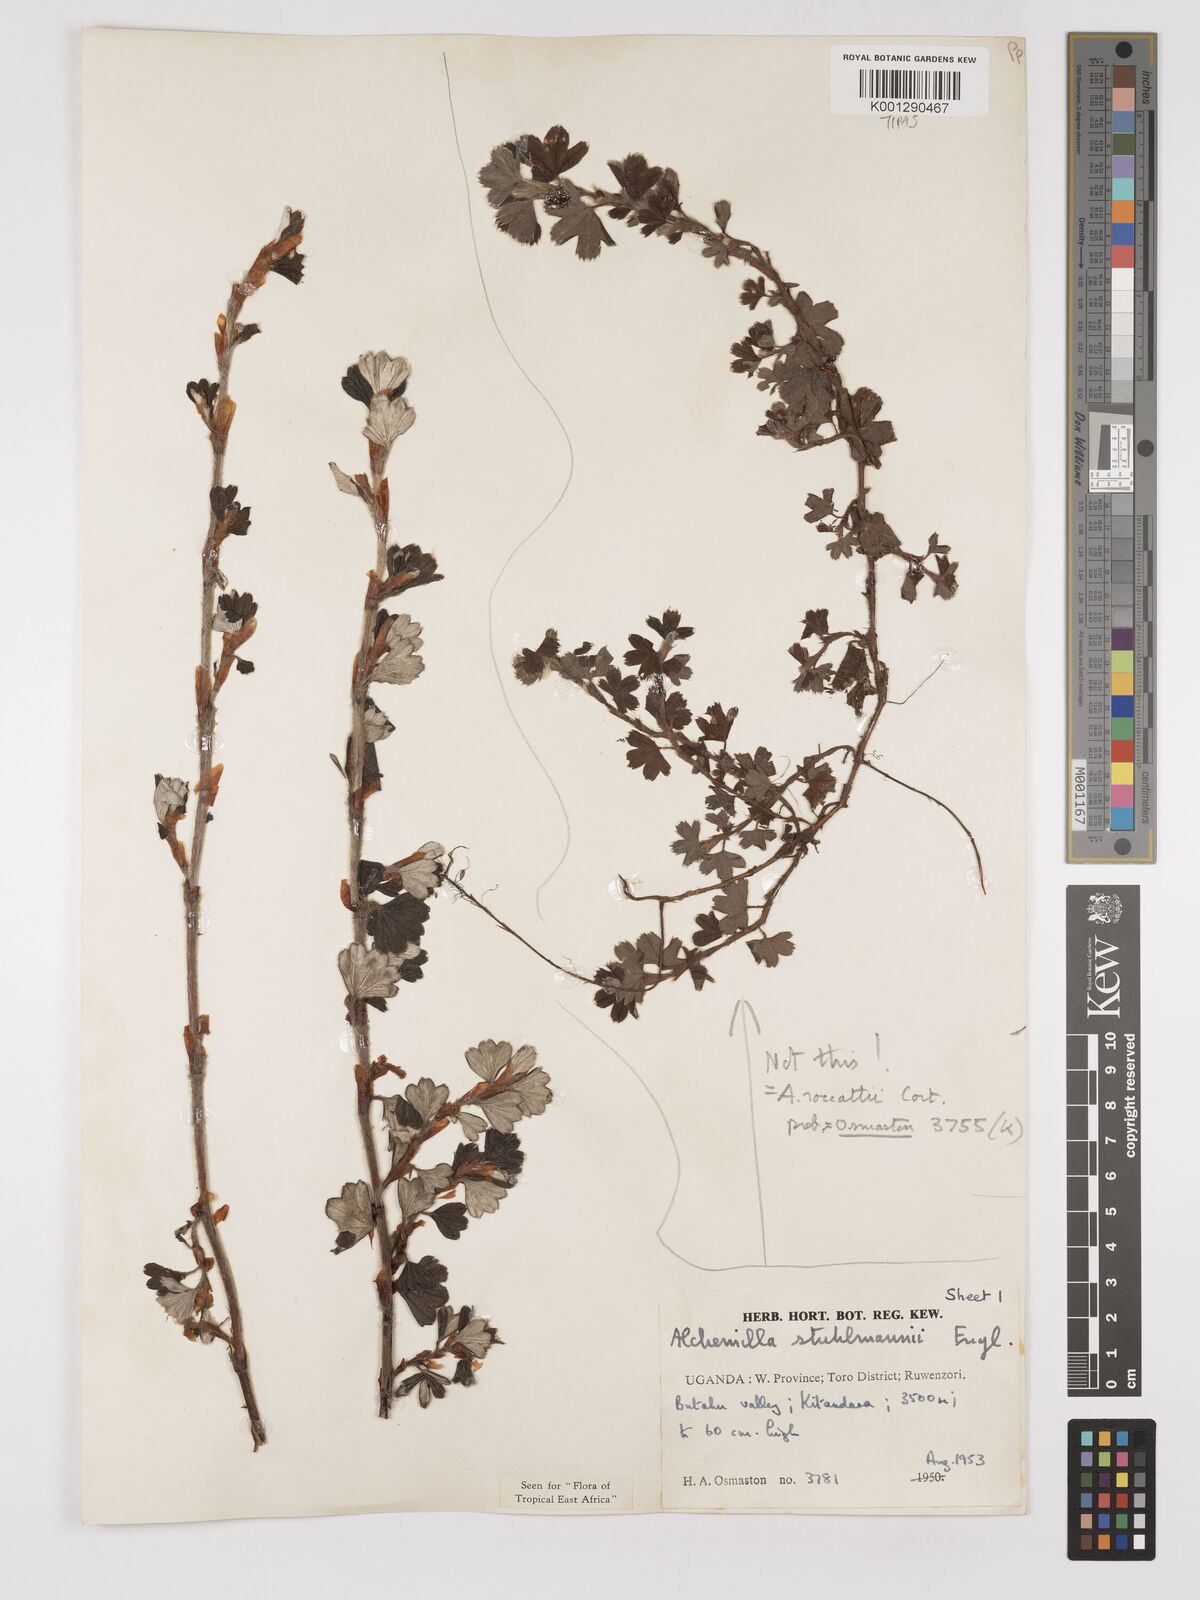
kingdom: Plantae
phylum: Tracheophyta
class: Magnoliopsida
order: Rosales
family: Rosaceae
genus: Alchemilla
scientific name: Alchemilla stuhlmannii
